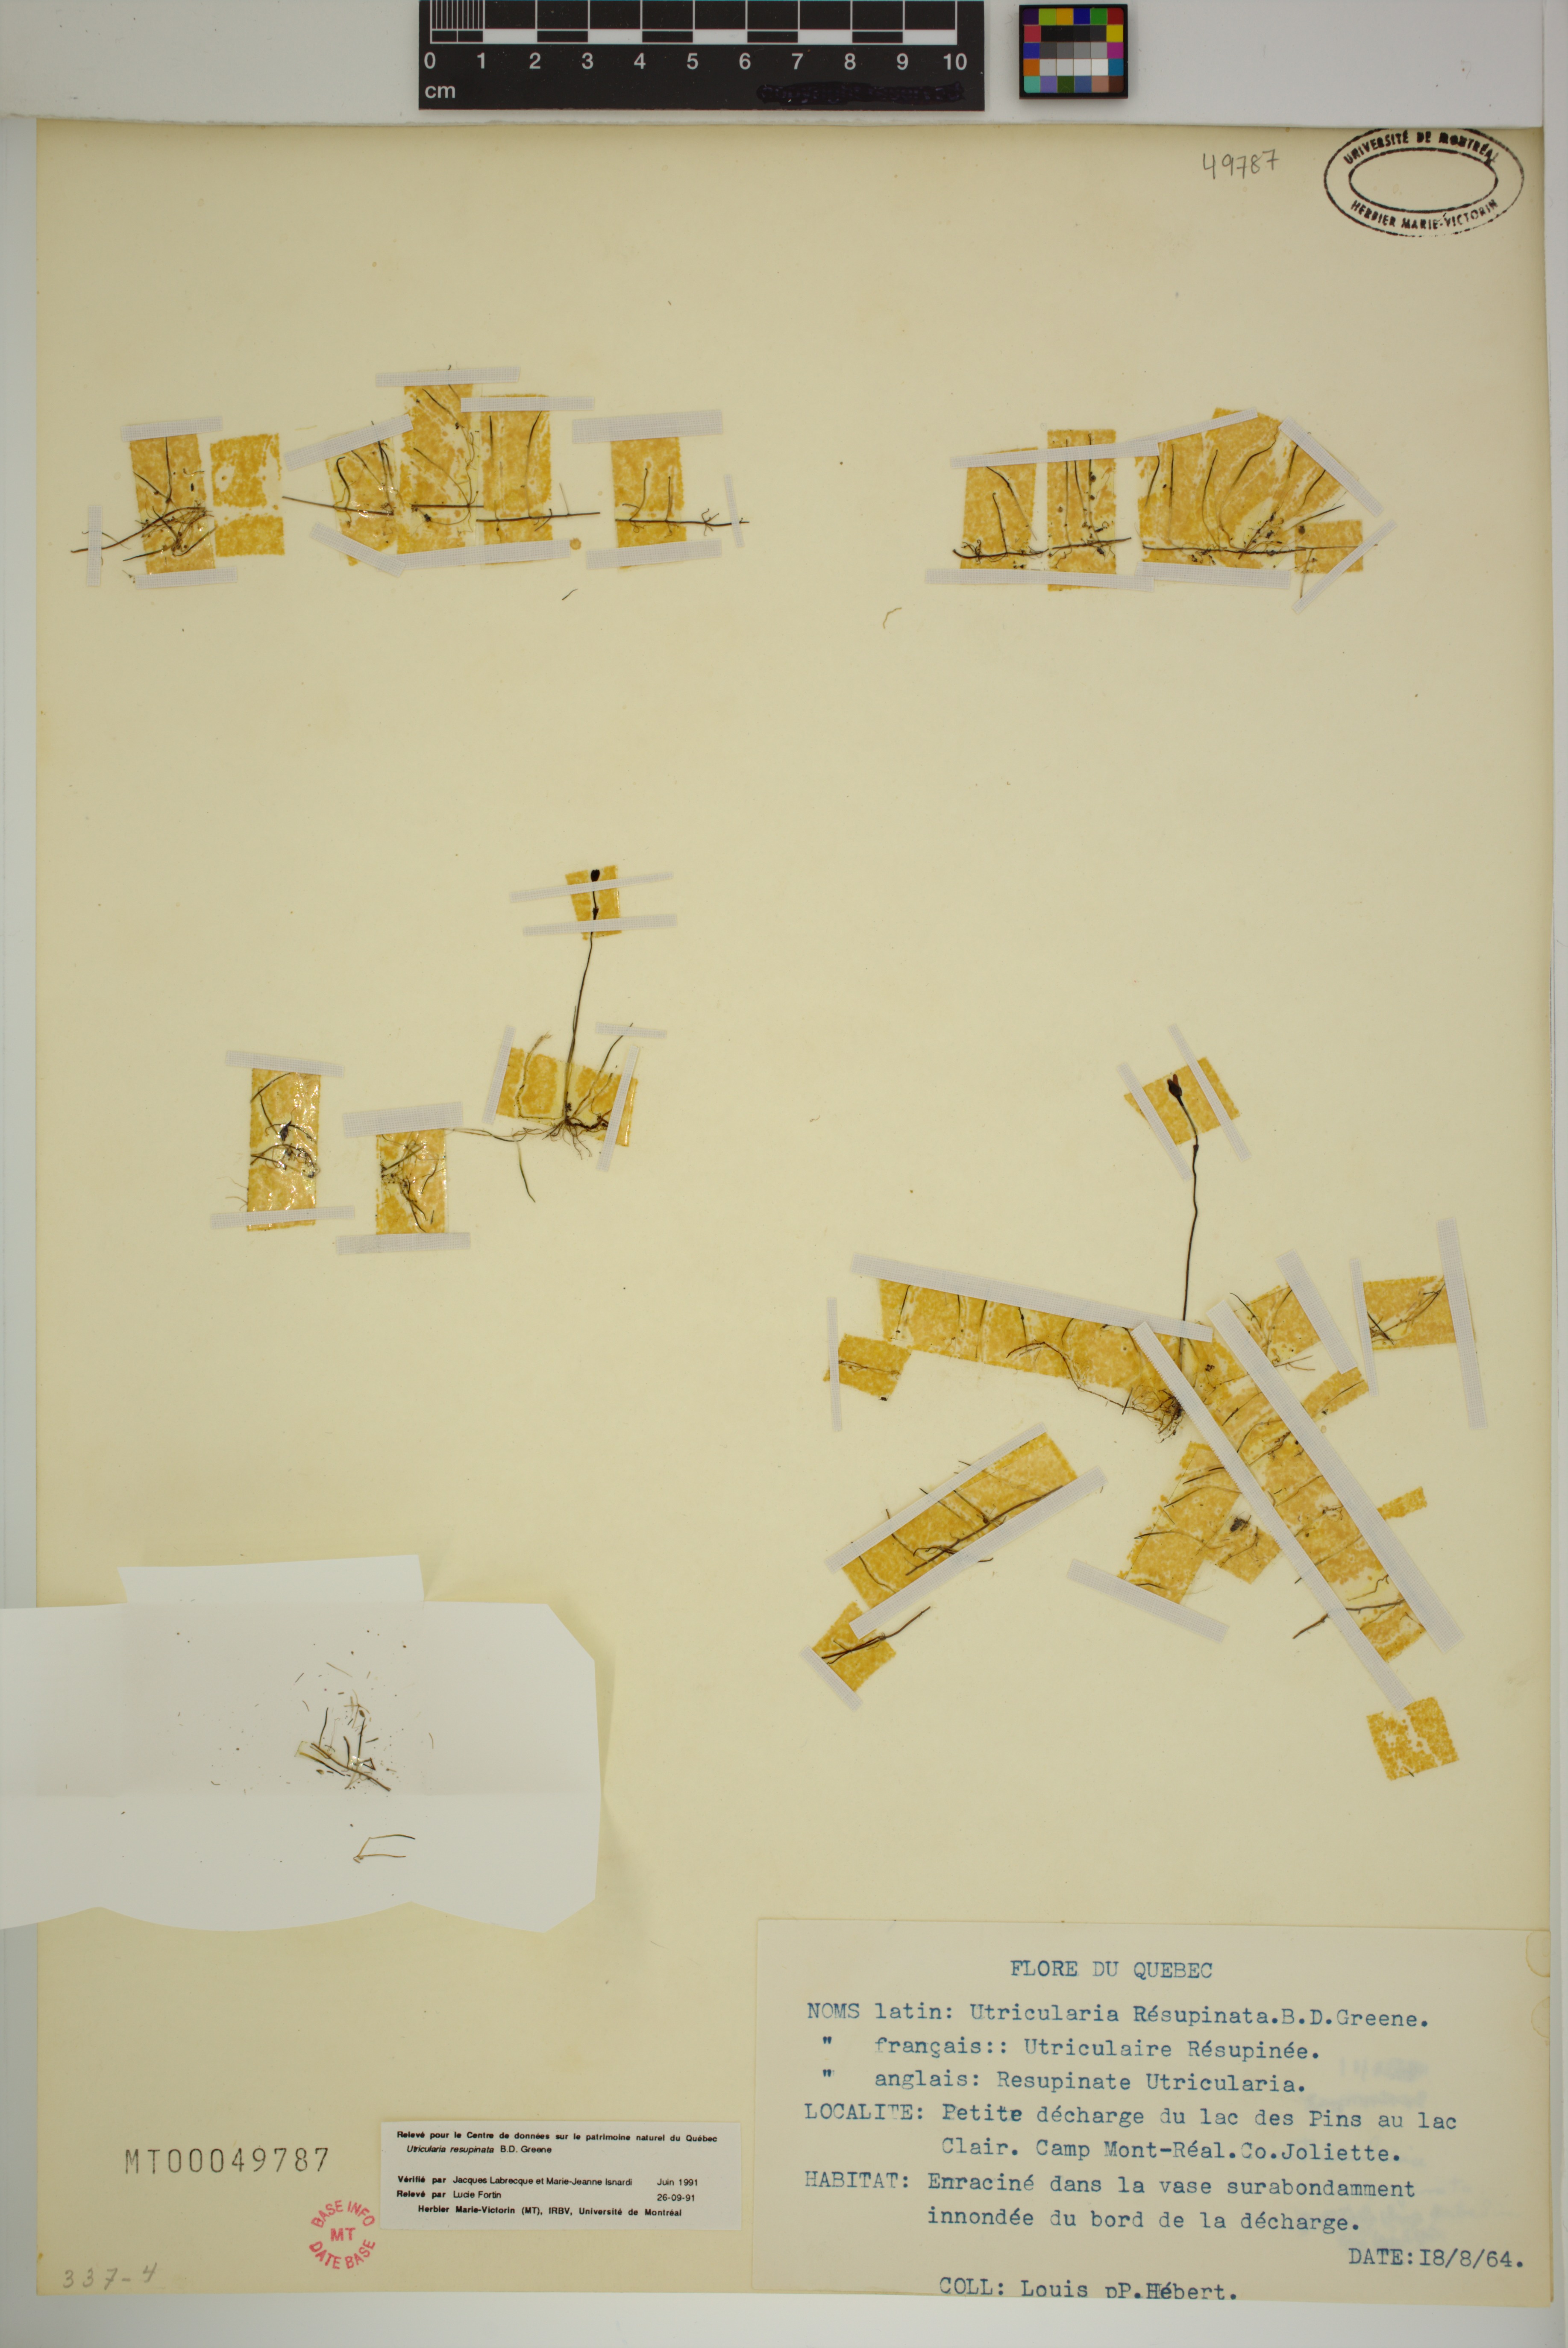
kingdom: Plantae
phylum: Tracheophyta
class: Magnoliopsida
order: Lamiales
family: Lentibulariaceae
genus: Utricularia
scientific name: Utricularia resupinata
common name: Northeastern bladderwort
